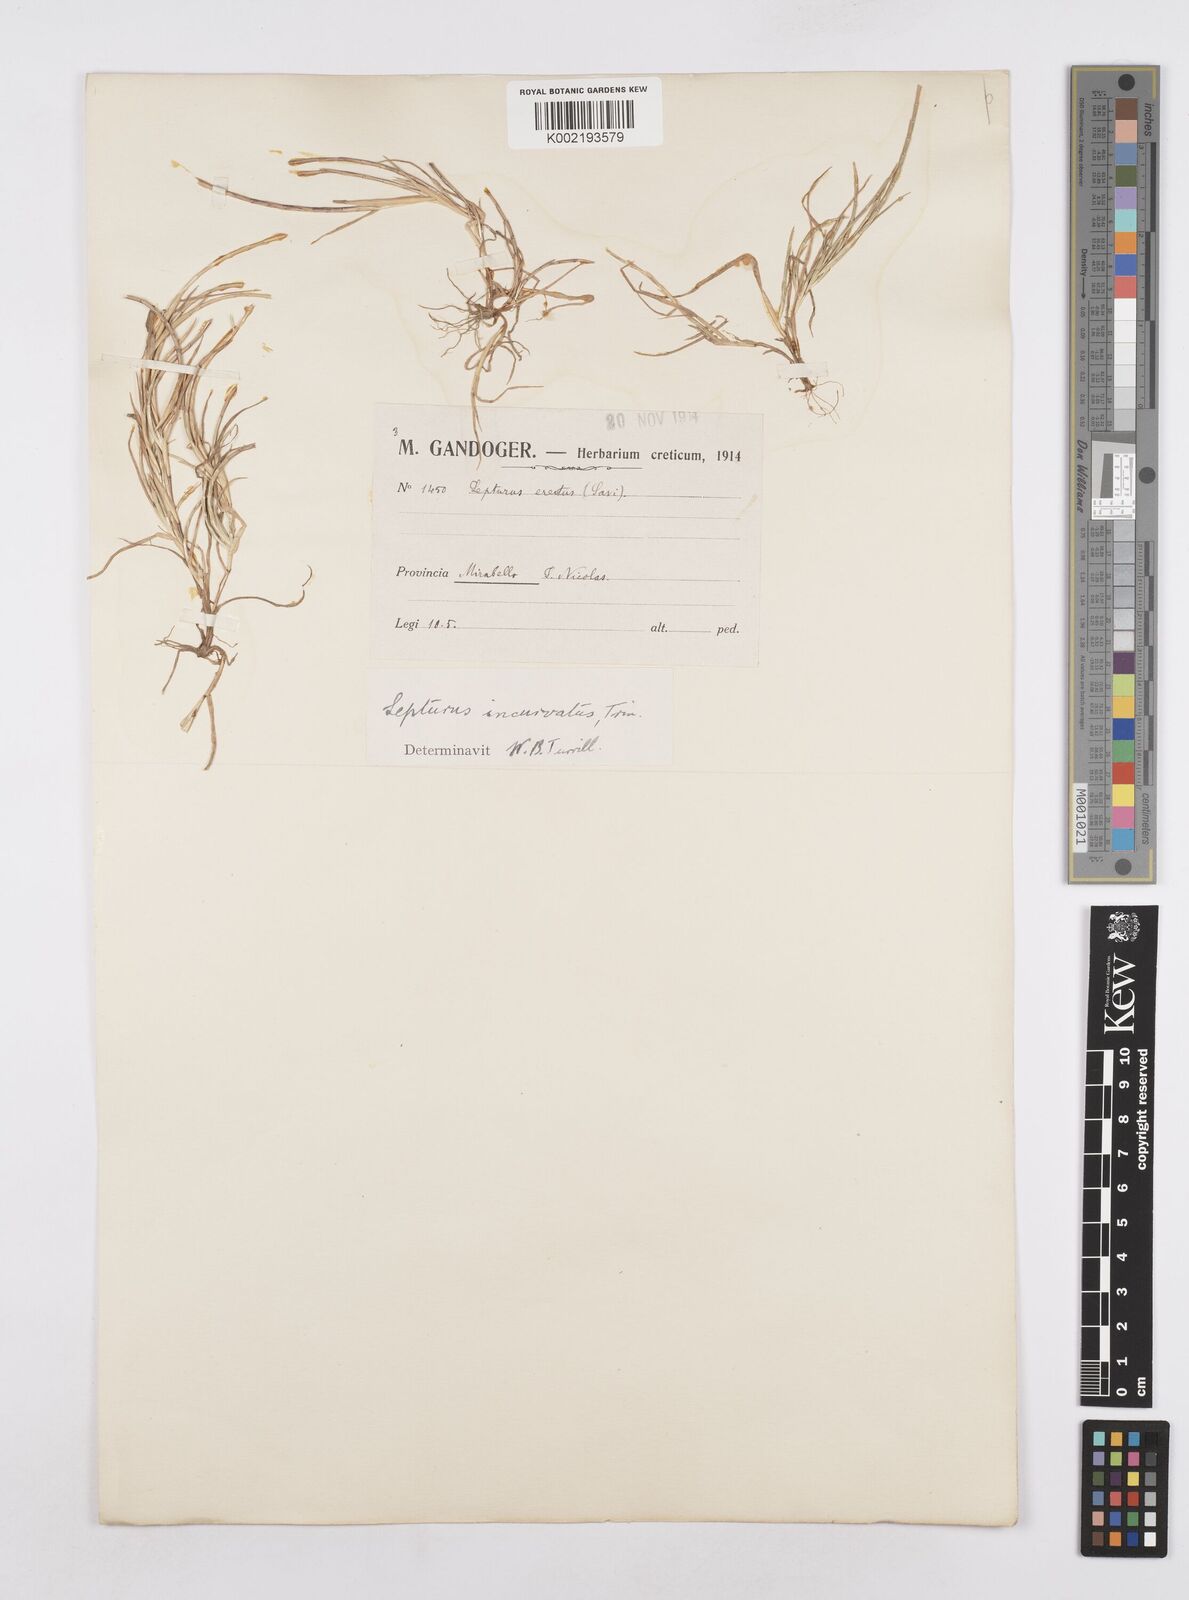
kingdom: Plantae
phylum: Tracheophyta
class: Liliopsida
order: Poales
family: Poaceae
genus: Parapholis
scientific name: Parapholis incurva
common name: Curved sicklegrass
